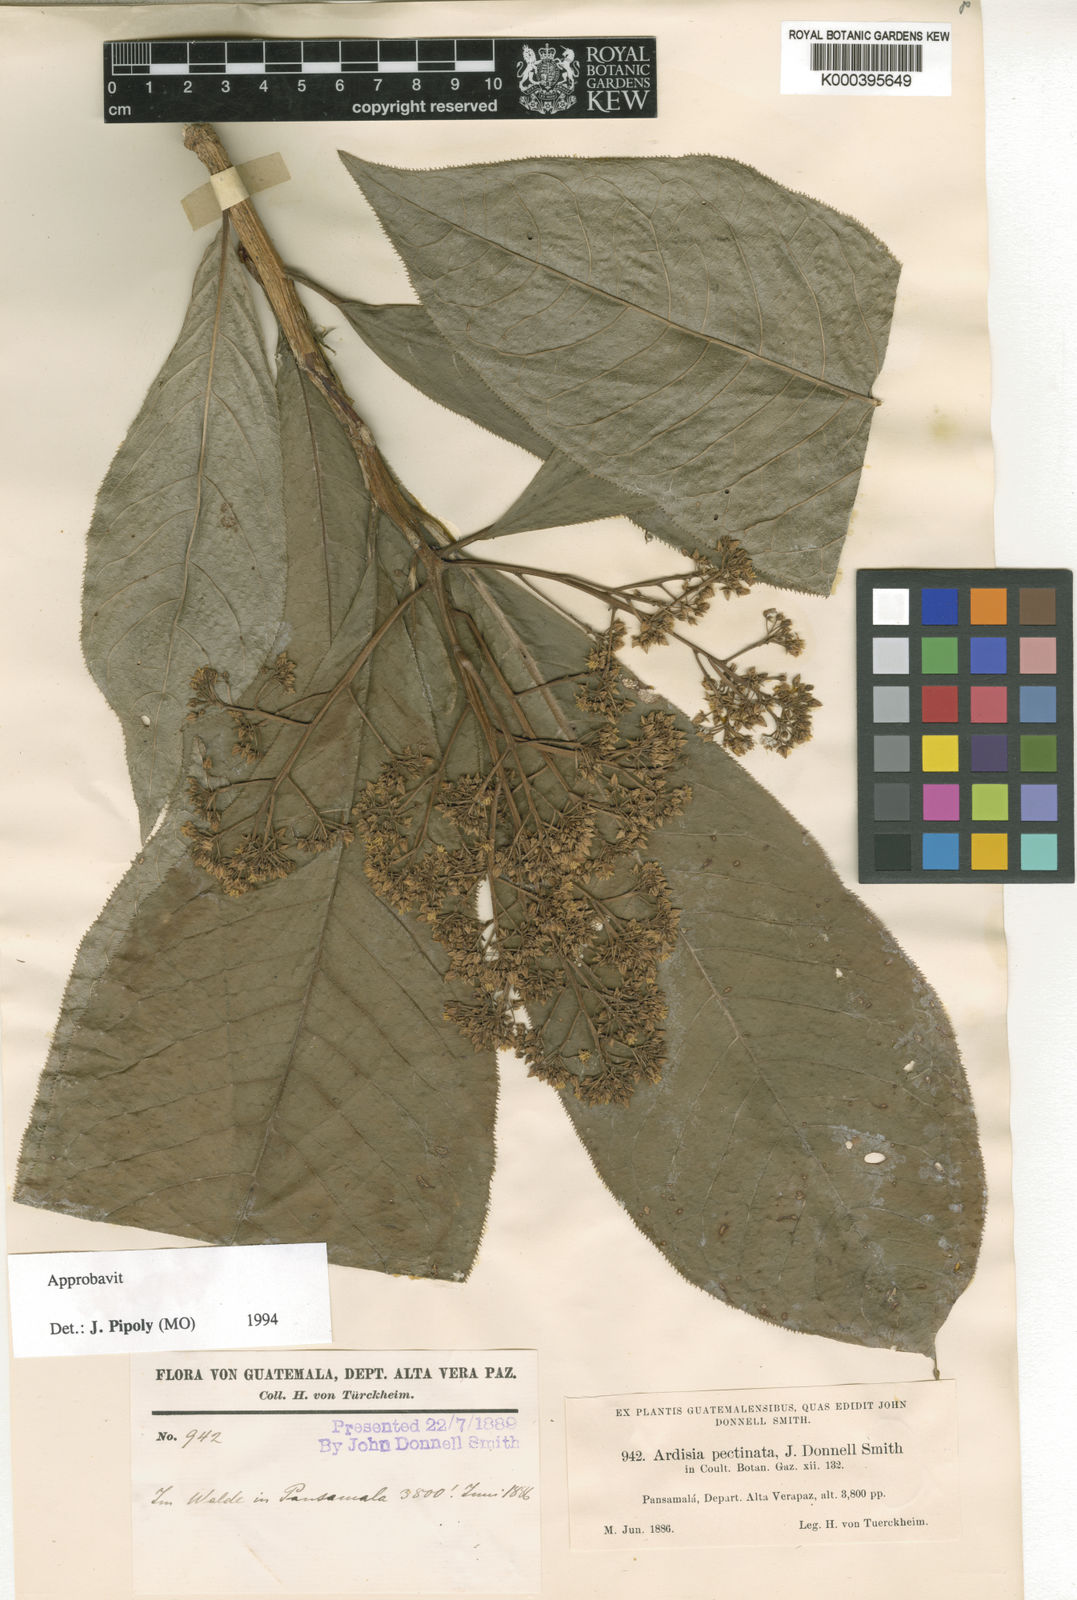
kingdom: Plantae
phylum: Tracheophyta
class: Magnoliopsida
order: Ericales
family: Primulaceae
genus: Ardisia
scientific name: Ardisia pellucida
